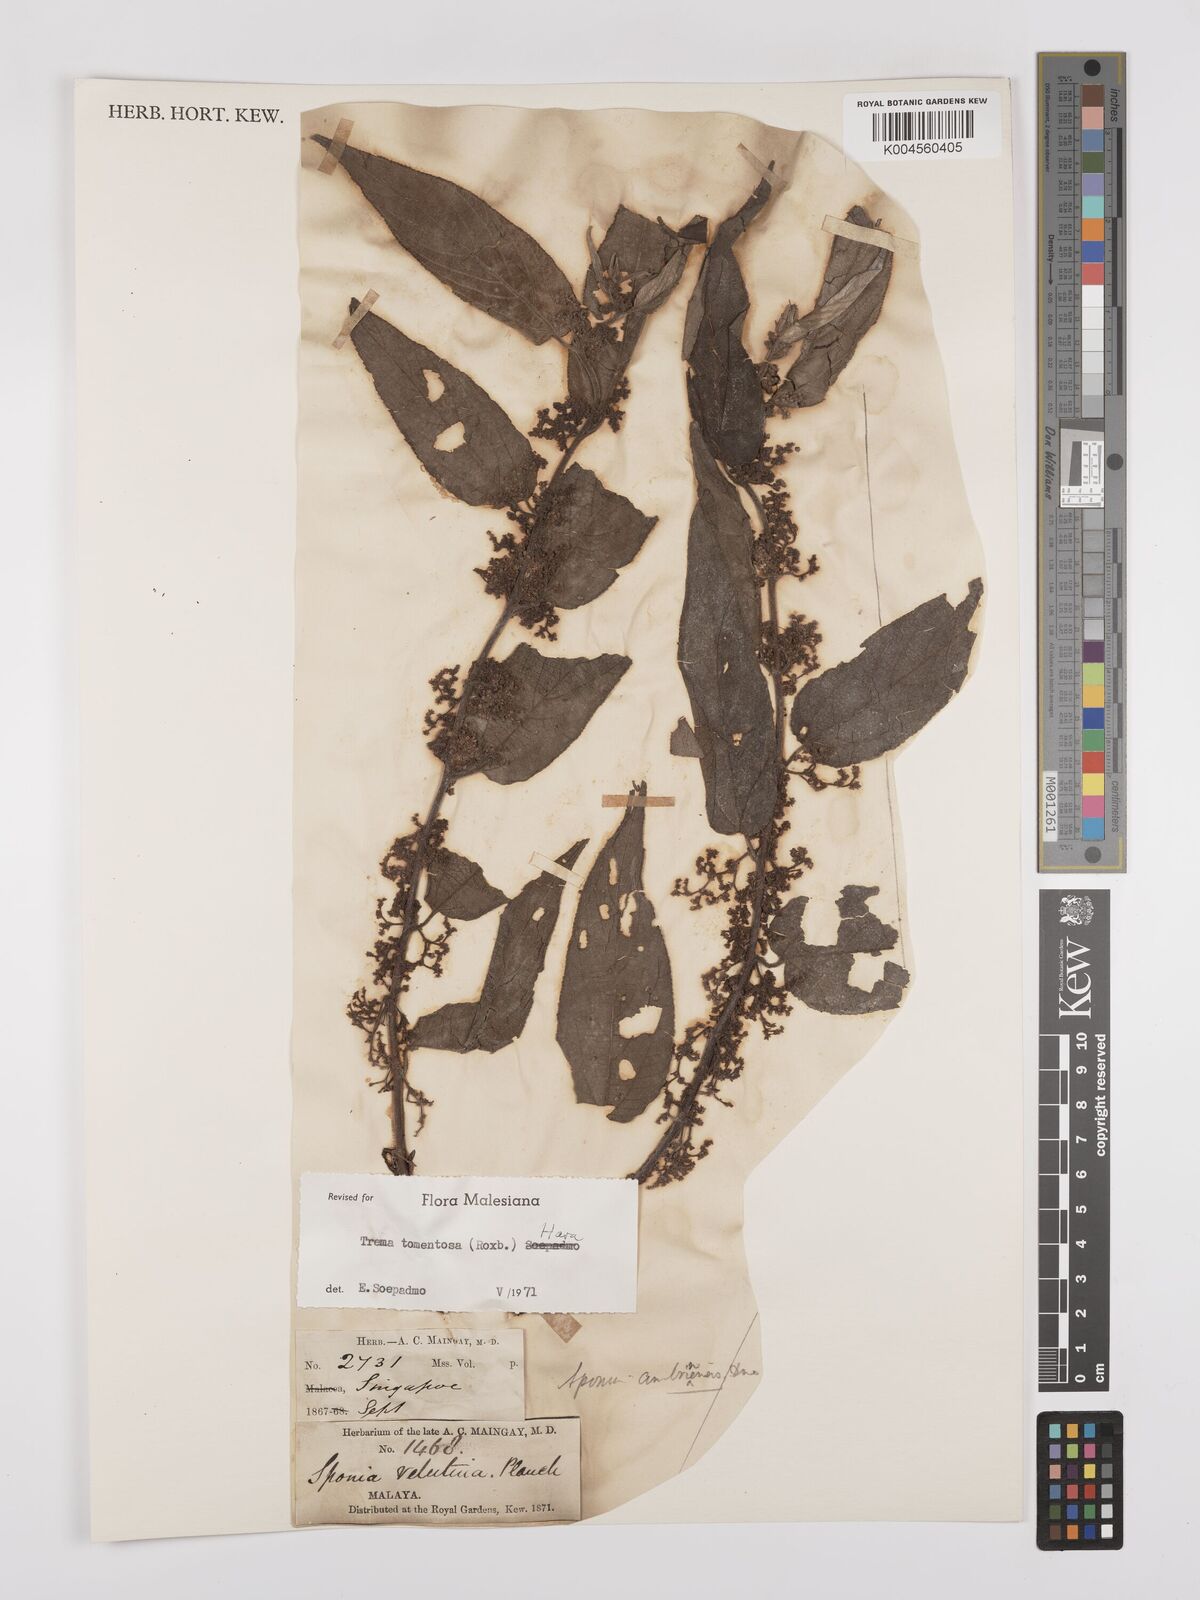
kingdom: Plantae
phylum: Tracheophyta
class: Magnoliopsida
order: Rosales
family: Cannabaceae
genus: Trema
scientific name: Trema tomentosum
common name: Peach-leaf-poisonbush
